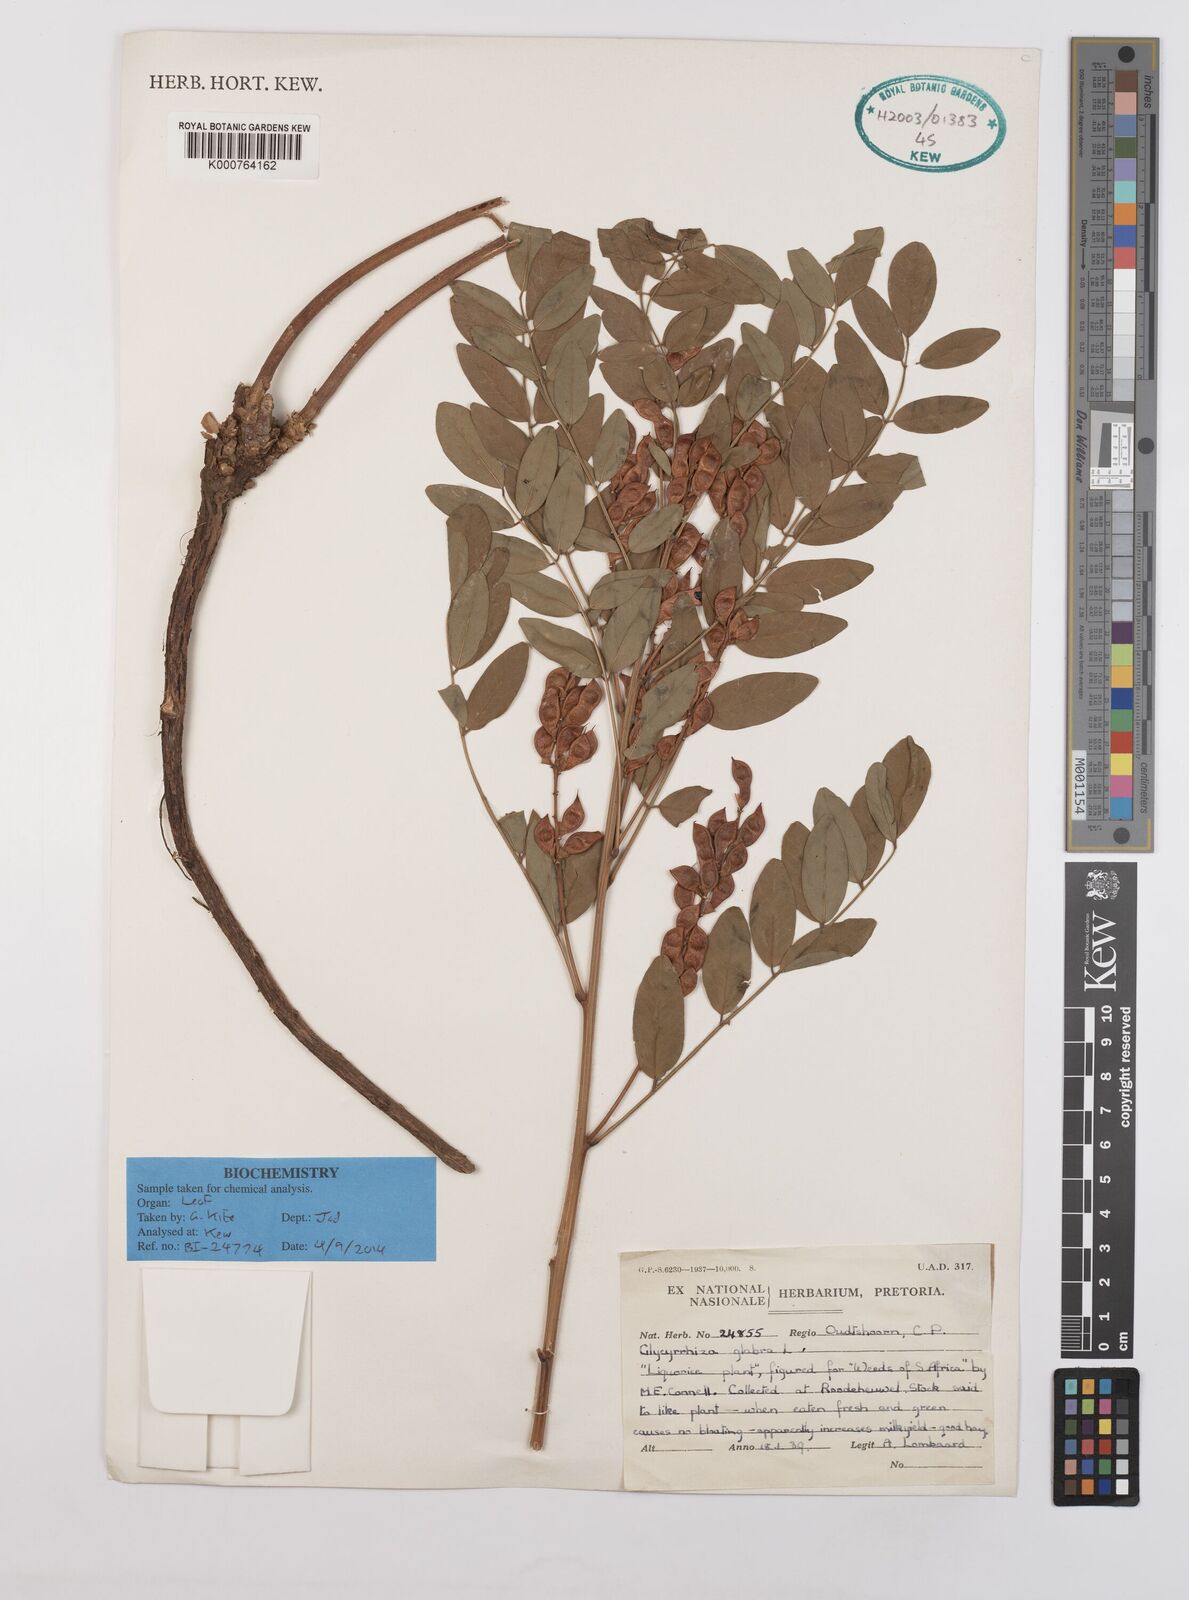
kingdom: Plantae
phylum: Tracheophyta
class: Magnoliopsida
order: Fabales
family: Fabaceae
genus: Glycyrrhiza
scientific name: Glycyrrhiza glabra
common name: Liquorice
